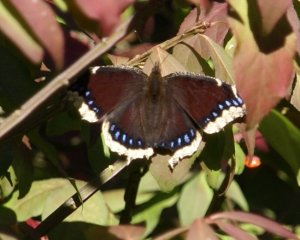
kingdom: Animalia
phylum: Arthropoda
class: Insecta
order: Lepidoptera
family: Nymphalidae
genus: Nymphalis
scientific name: Nymphalis antiopa
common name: Mourning Cloak
